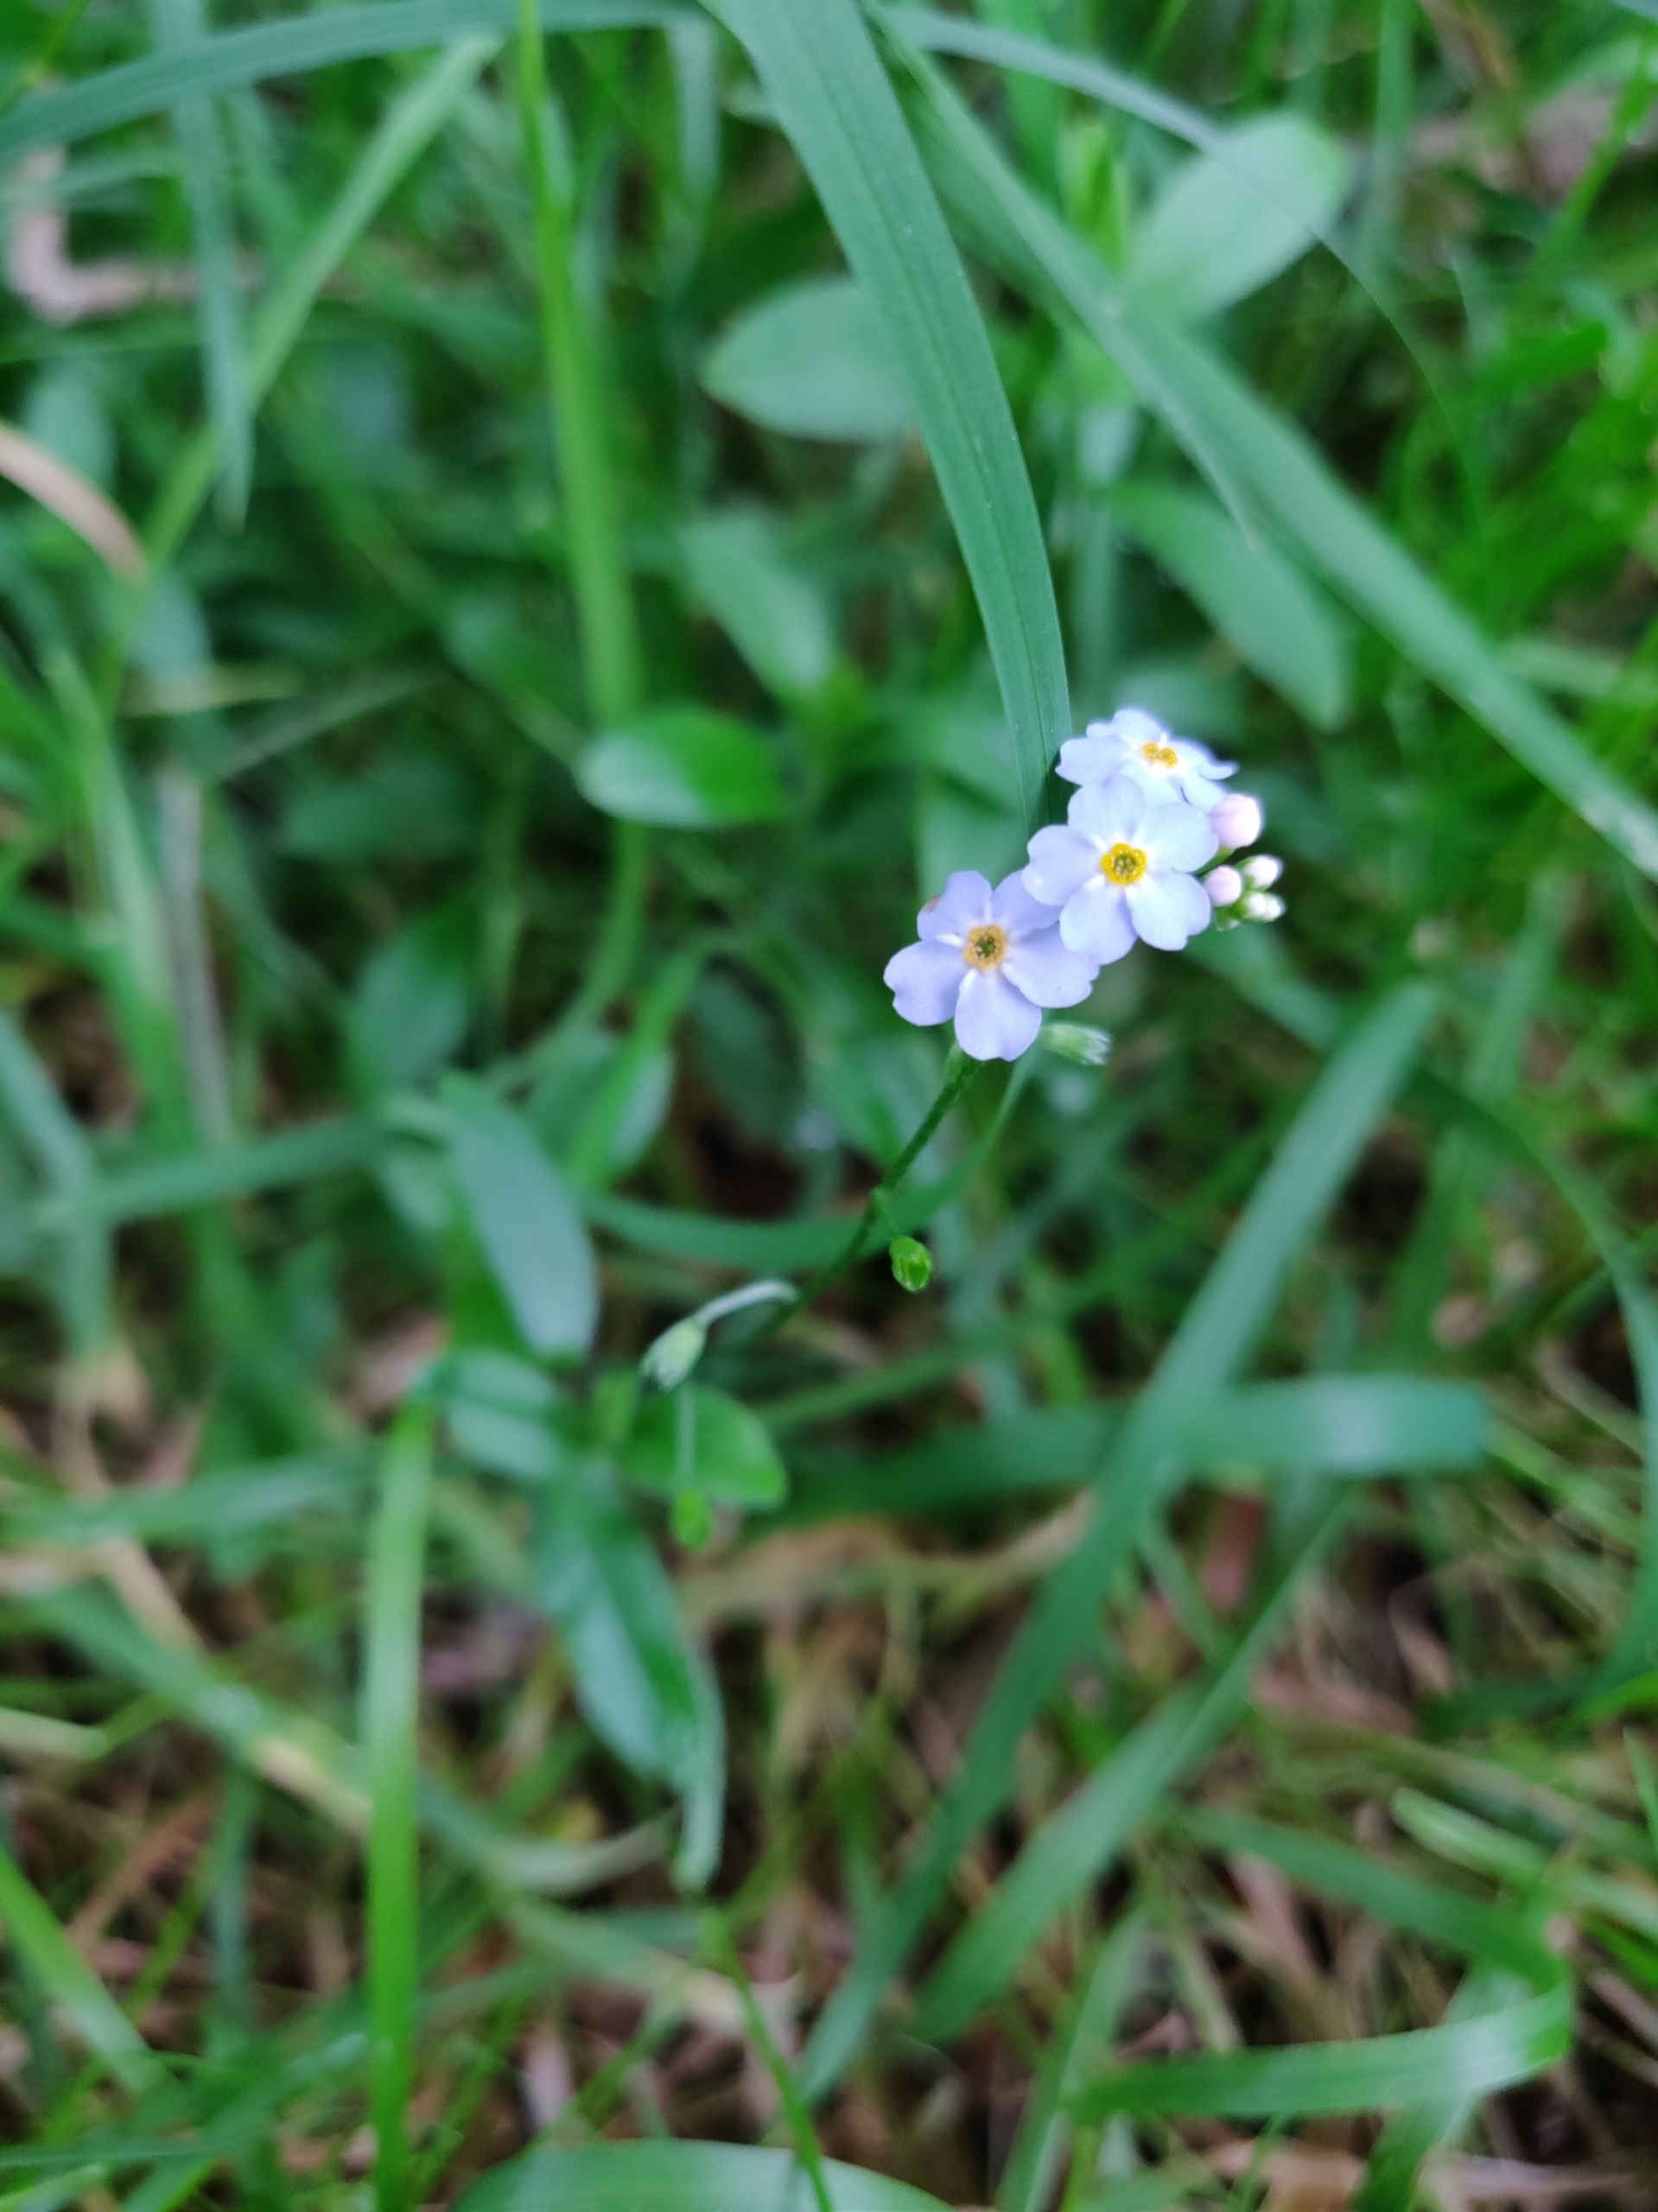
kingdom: Plantae
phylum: Tracheophyta
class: Magnoliopsida
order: Boraginales
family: Boraginaceae
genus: Myosotis
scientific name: Myosotis scorpioides
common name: Eng-forglemmigej
